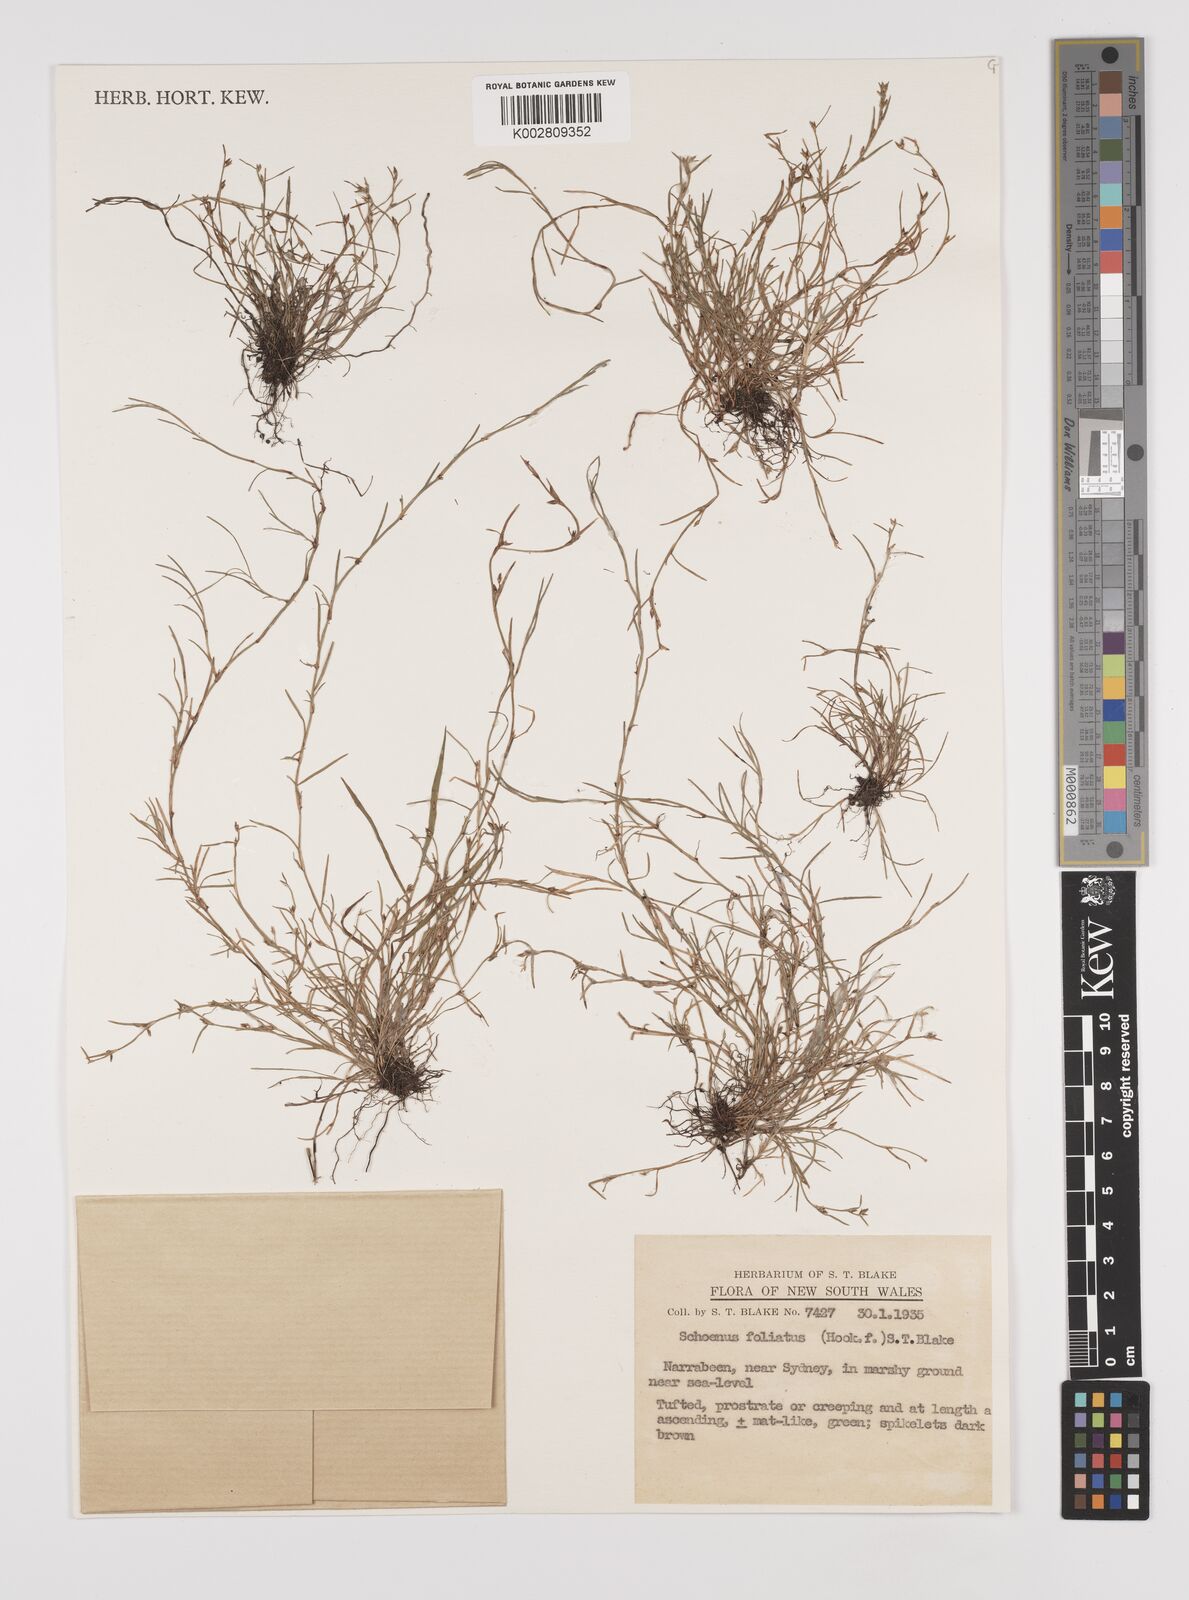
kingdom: Plantae
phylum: Tracheophyta
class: Liliopsida
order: Poales
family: Cyperaceae
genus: Schoenus
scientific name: Schoenus maschalinus
